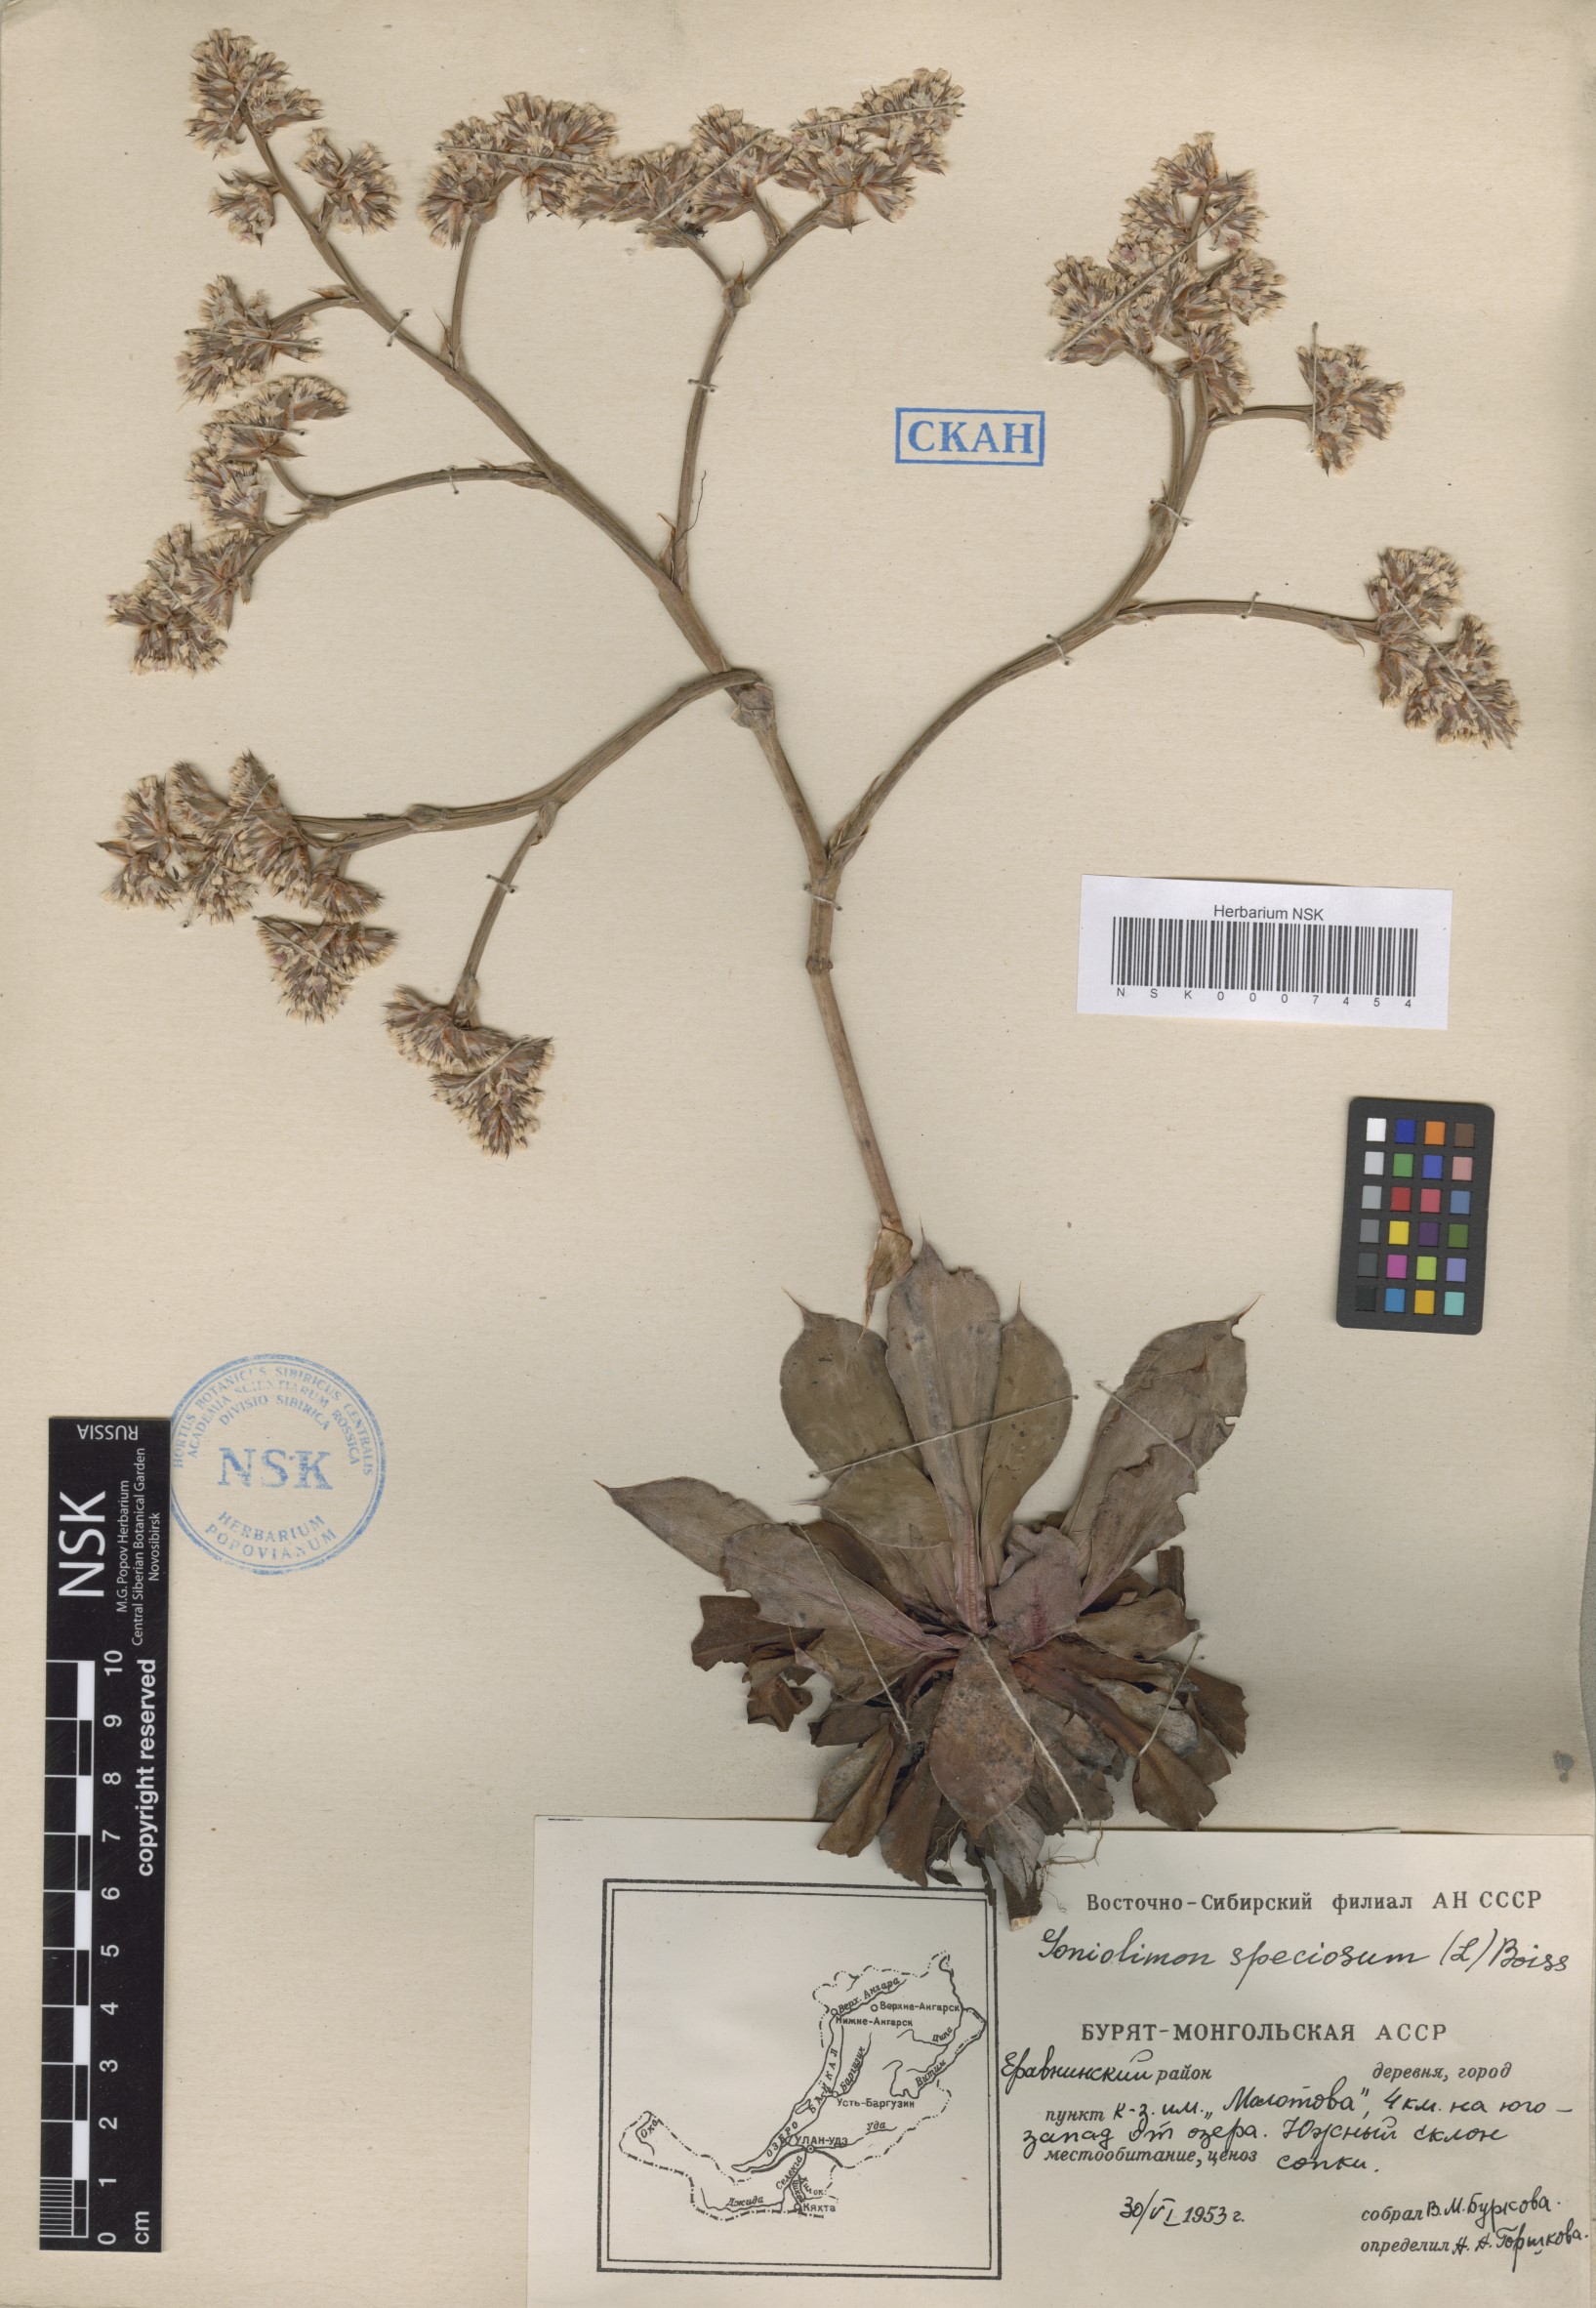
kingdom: Plantae
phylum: Tracheophyta
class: Magnoliopsida
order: Caryophyllales
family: Plumbaginaceae
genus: Goniolimon
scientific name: Goniolimon speciosum
